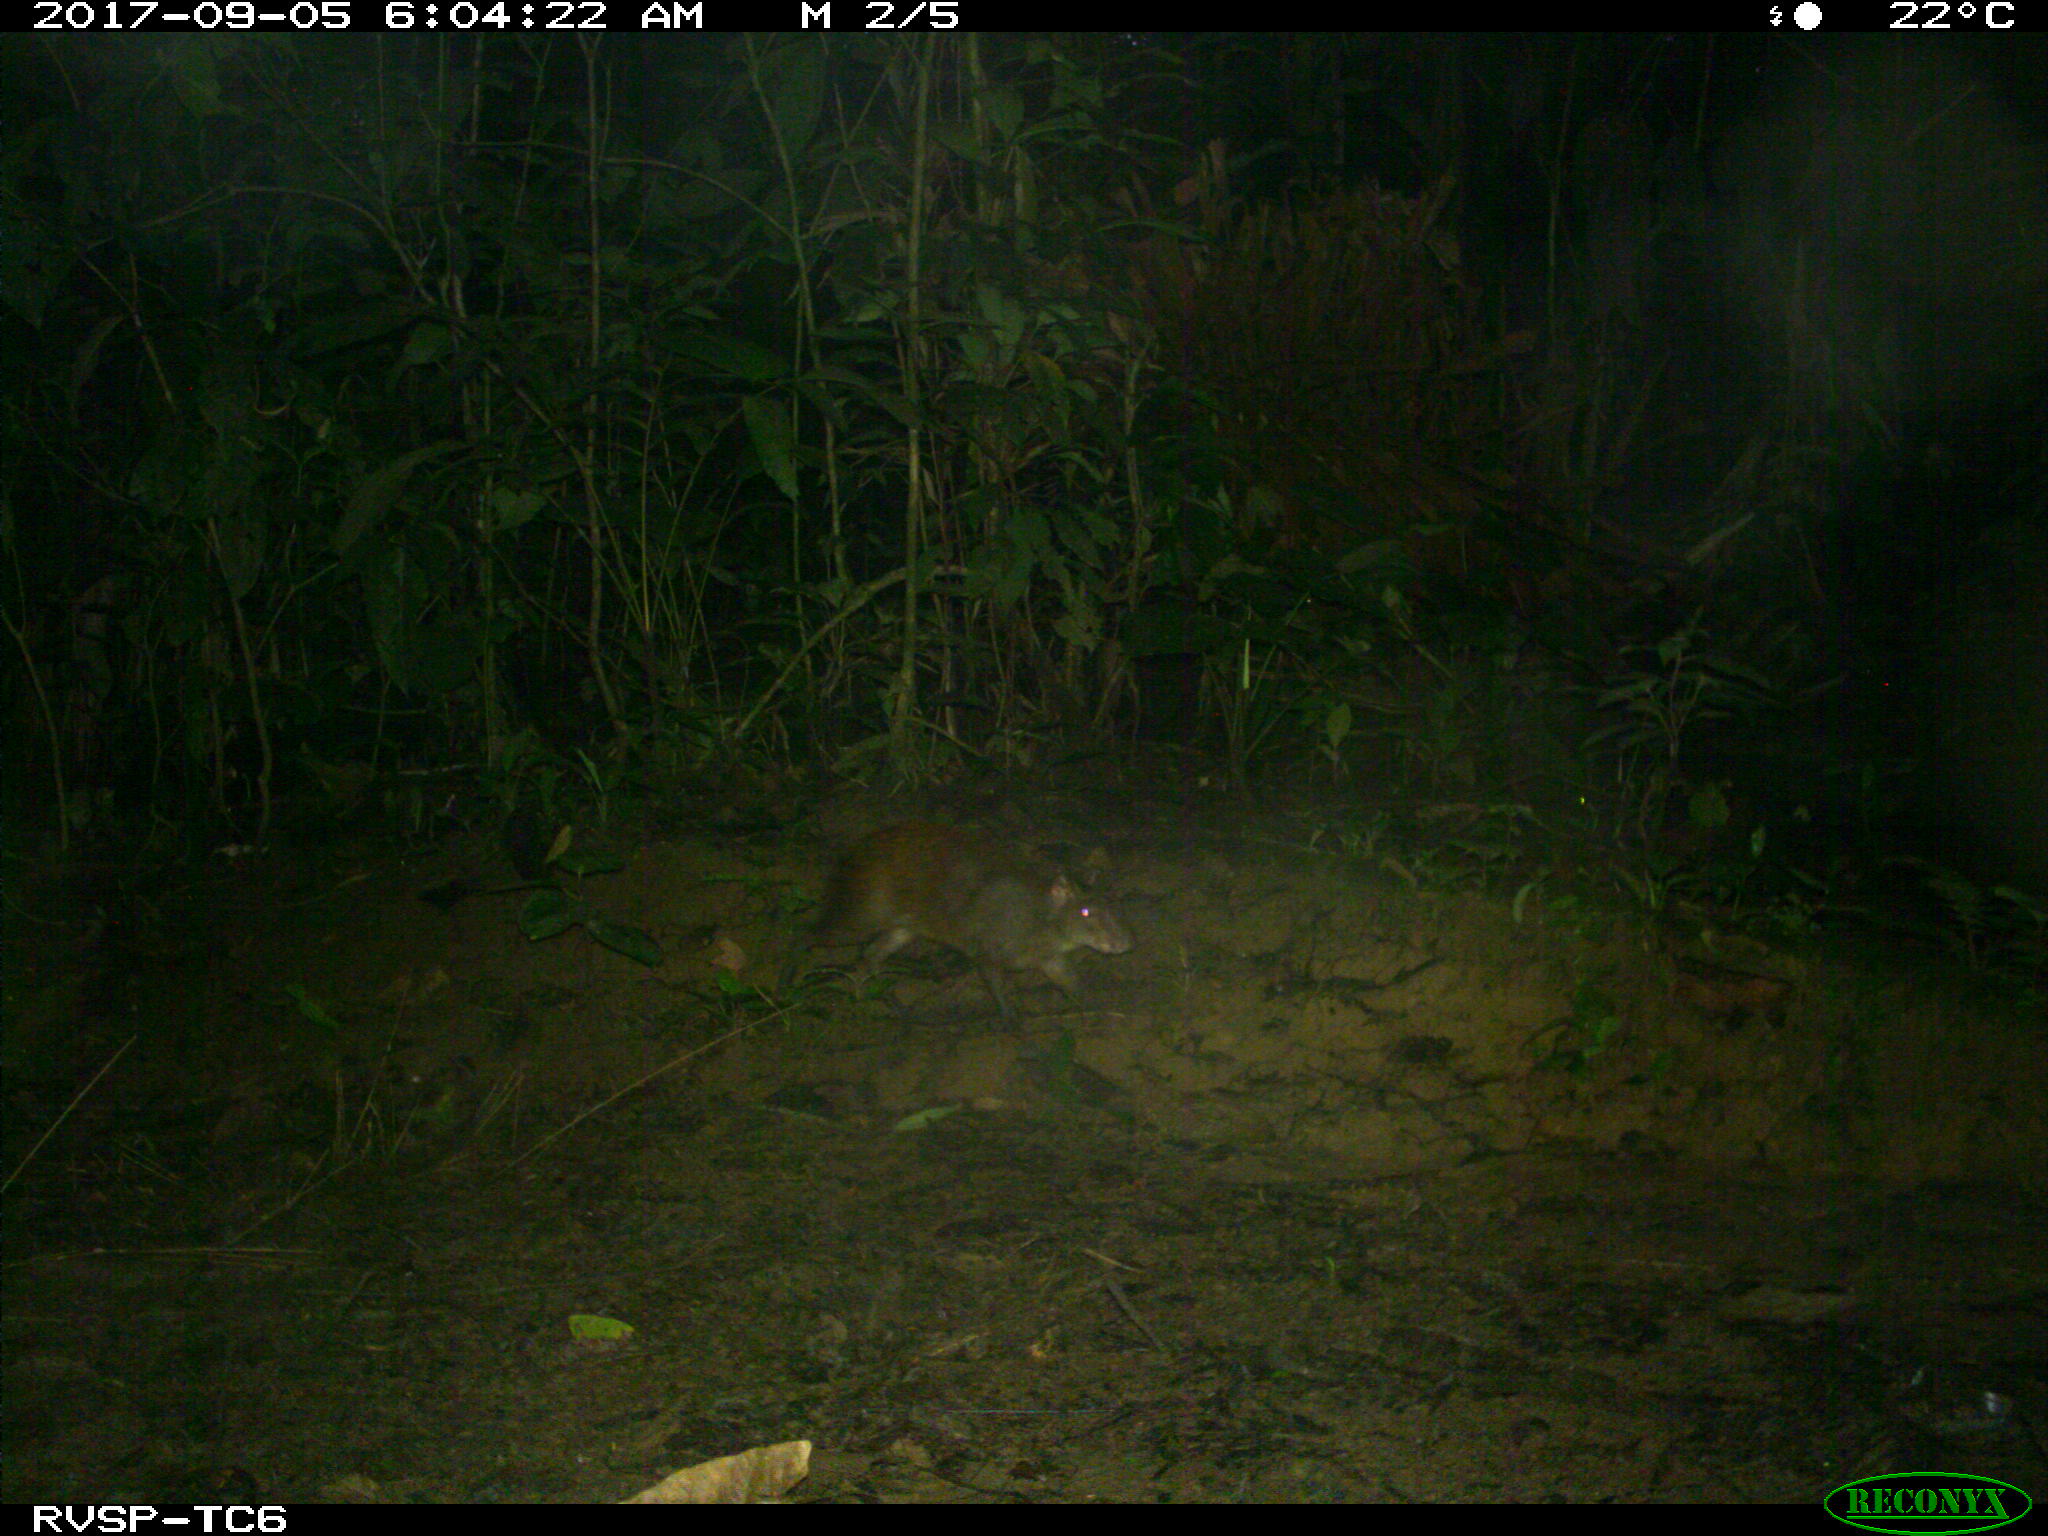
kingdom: Animalia
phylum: Chordata
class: Mammalia
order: Rodentia
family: Dasyproctidae
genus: Dasyprocta
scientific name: Dasyprocta punctata
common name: Central american agouti
